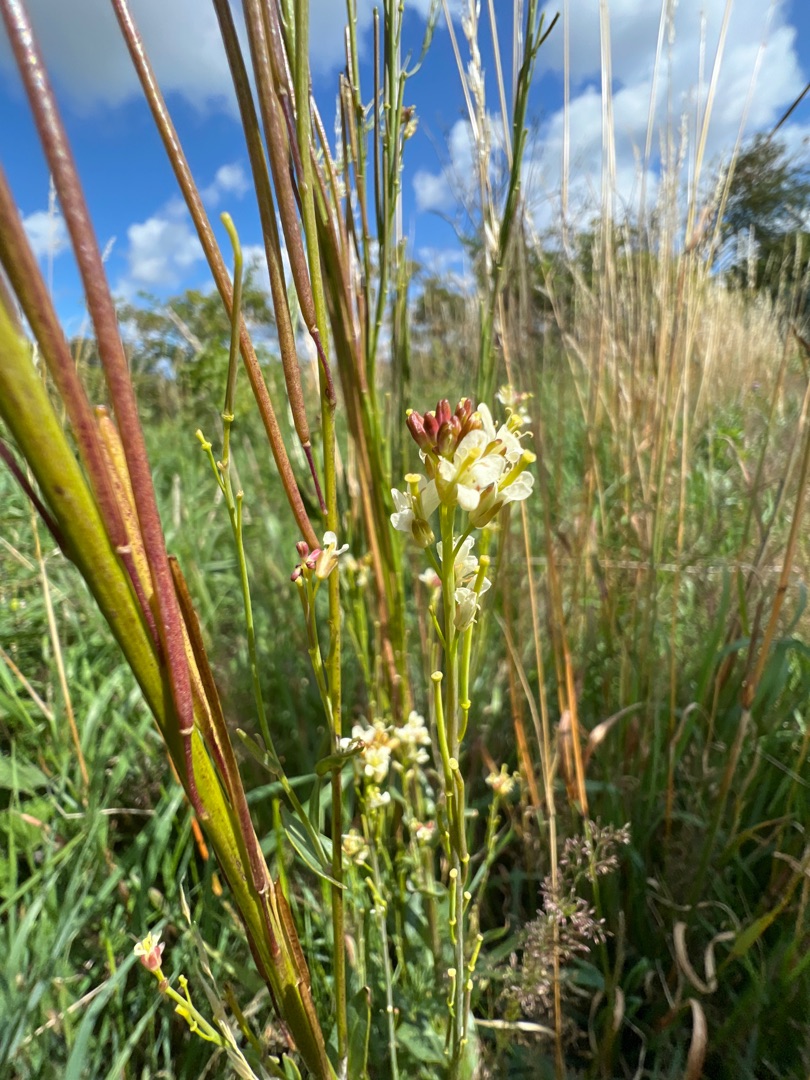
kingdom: Plantae
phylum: Tracheophyta
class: Magnoliopsida
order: Brassicales
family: Brassicaceae
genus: Turritis
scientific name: Turritis glabra
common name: Tårnurt
